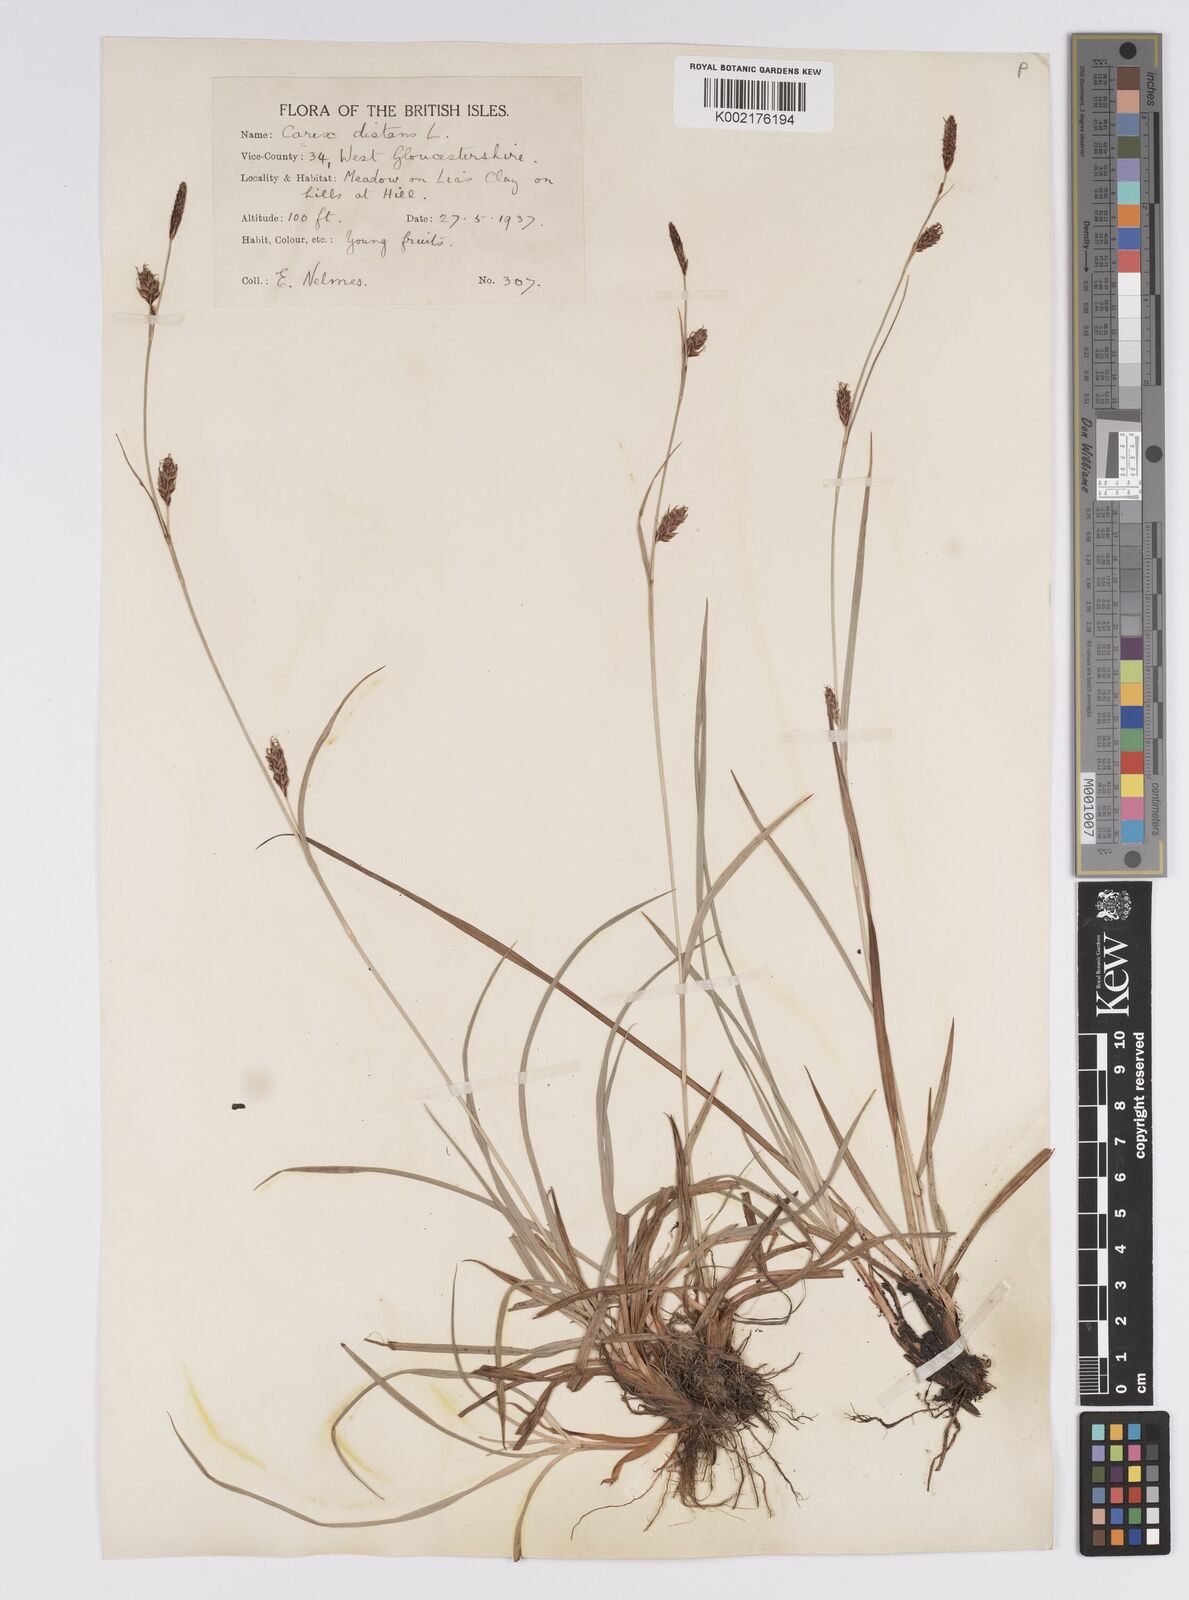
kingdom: Plantae
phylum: Tracheophyta
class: Liliopsida
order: Poales
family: Cyperaceae
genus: Carex
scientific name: Carex distans
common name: Distant sedge
